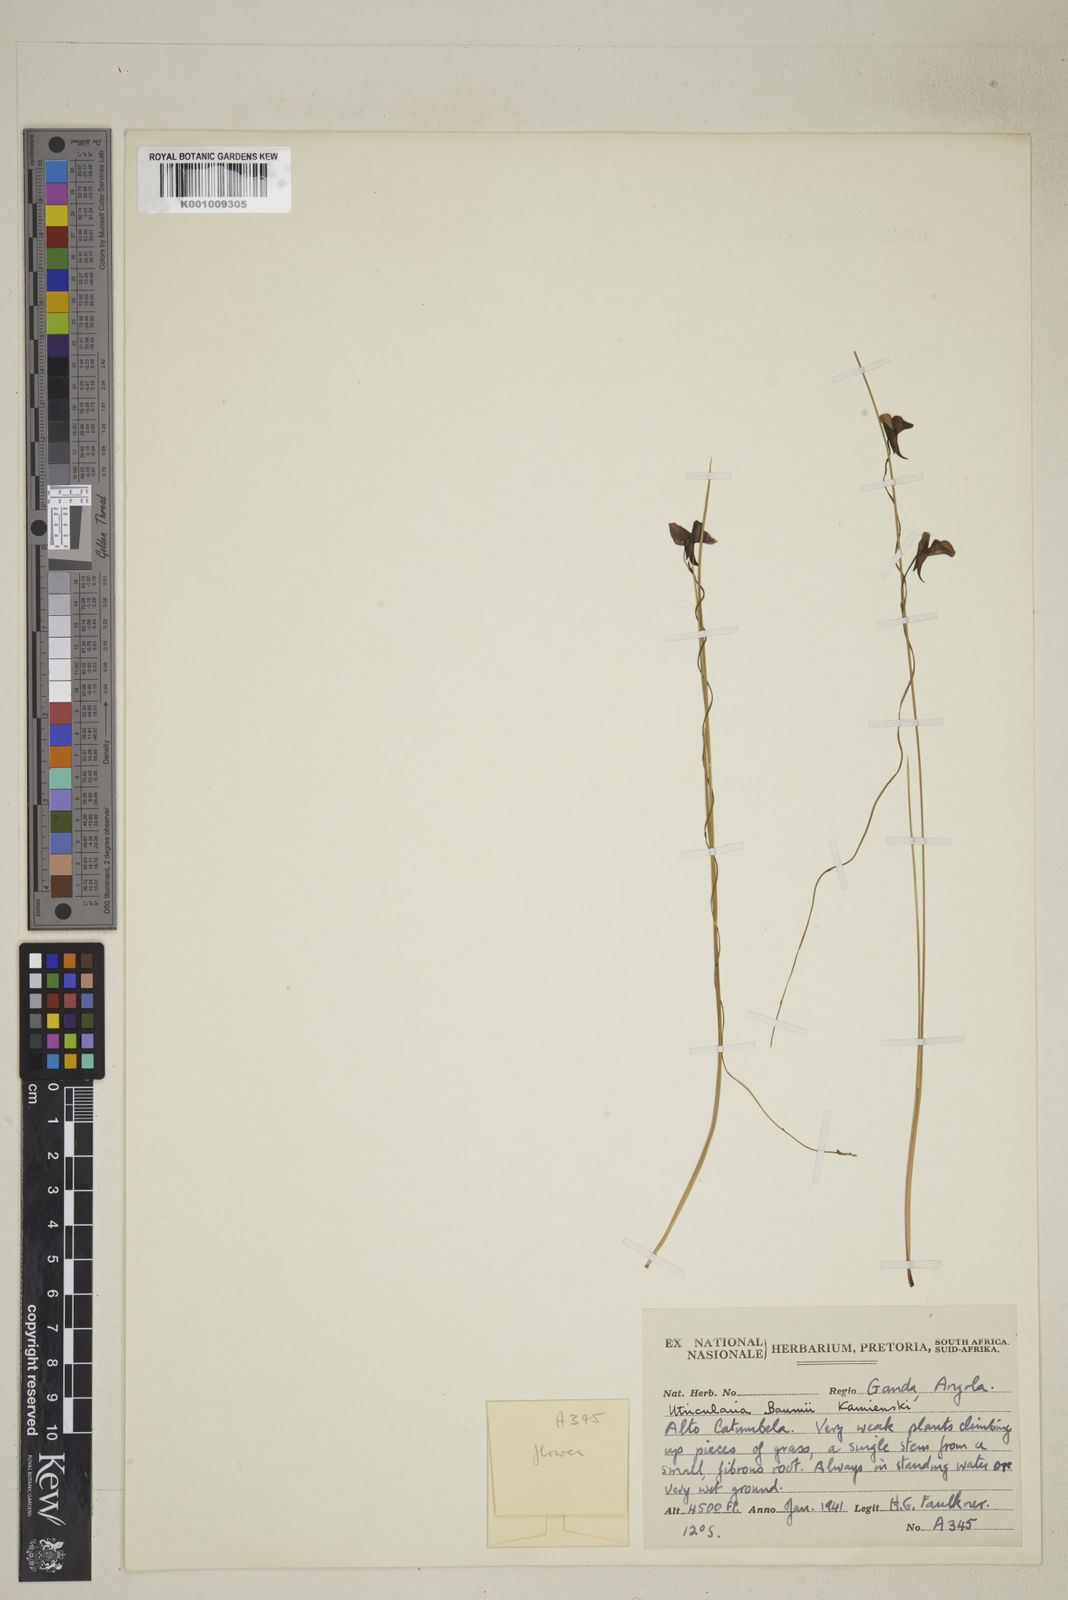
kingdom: Plantae
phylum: Tracheophyta
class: Magnoliopsida
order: Lamiales
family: Lentibulariaceae
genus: Utricularia
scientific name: Utricularia spiralis
